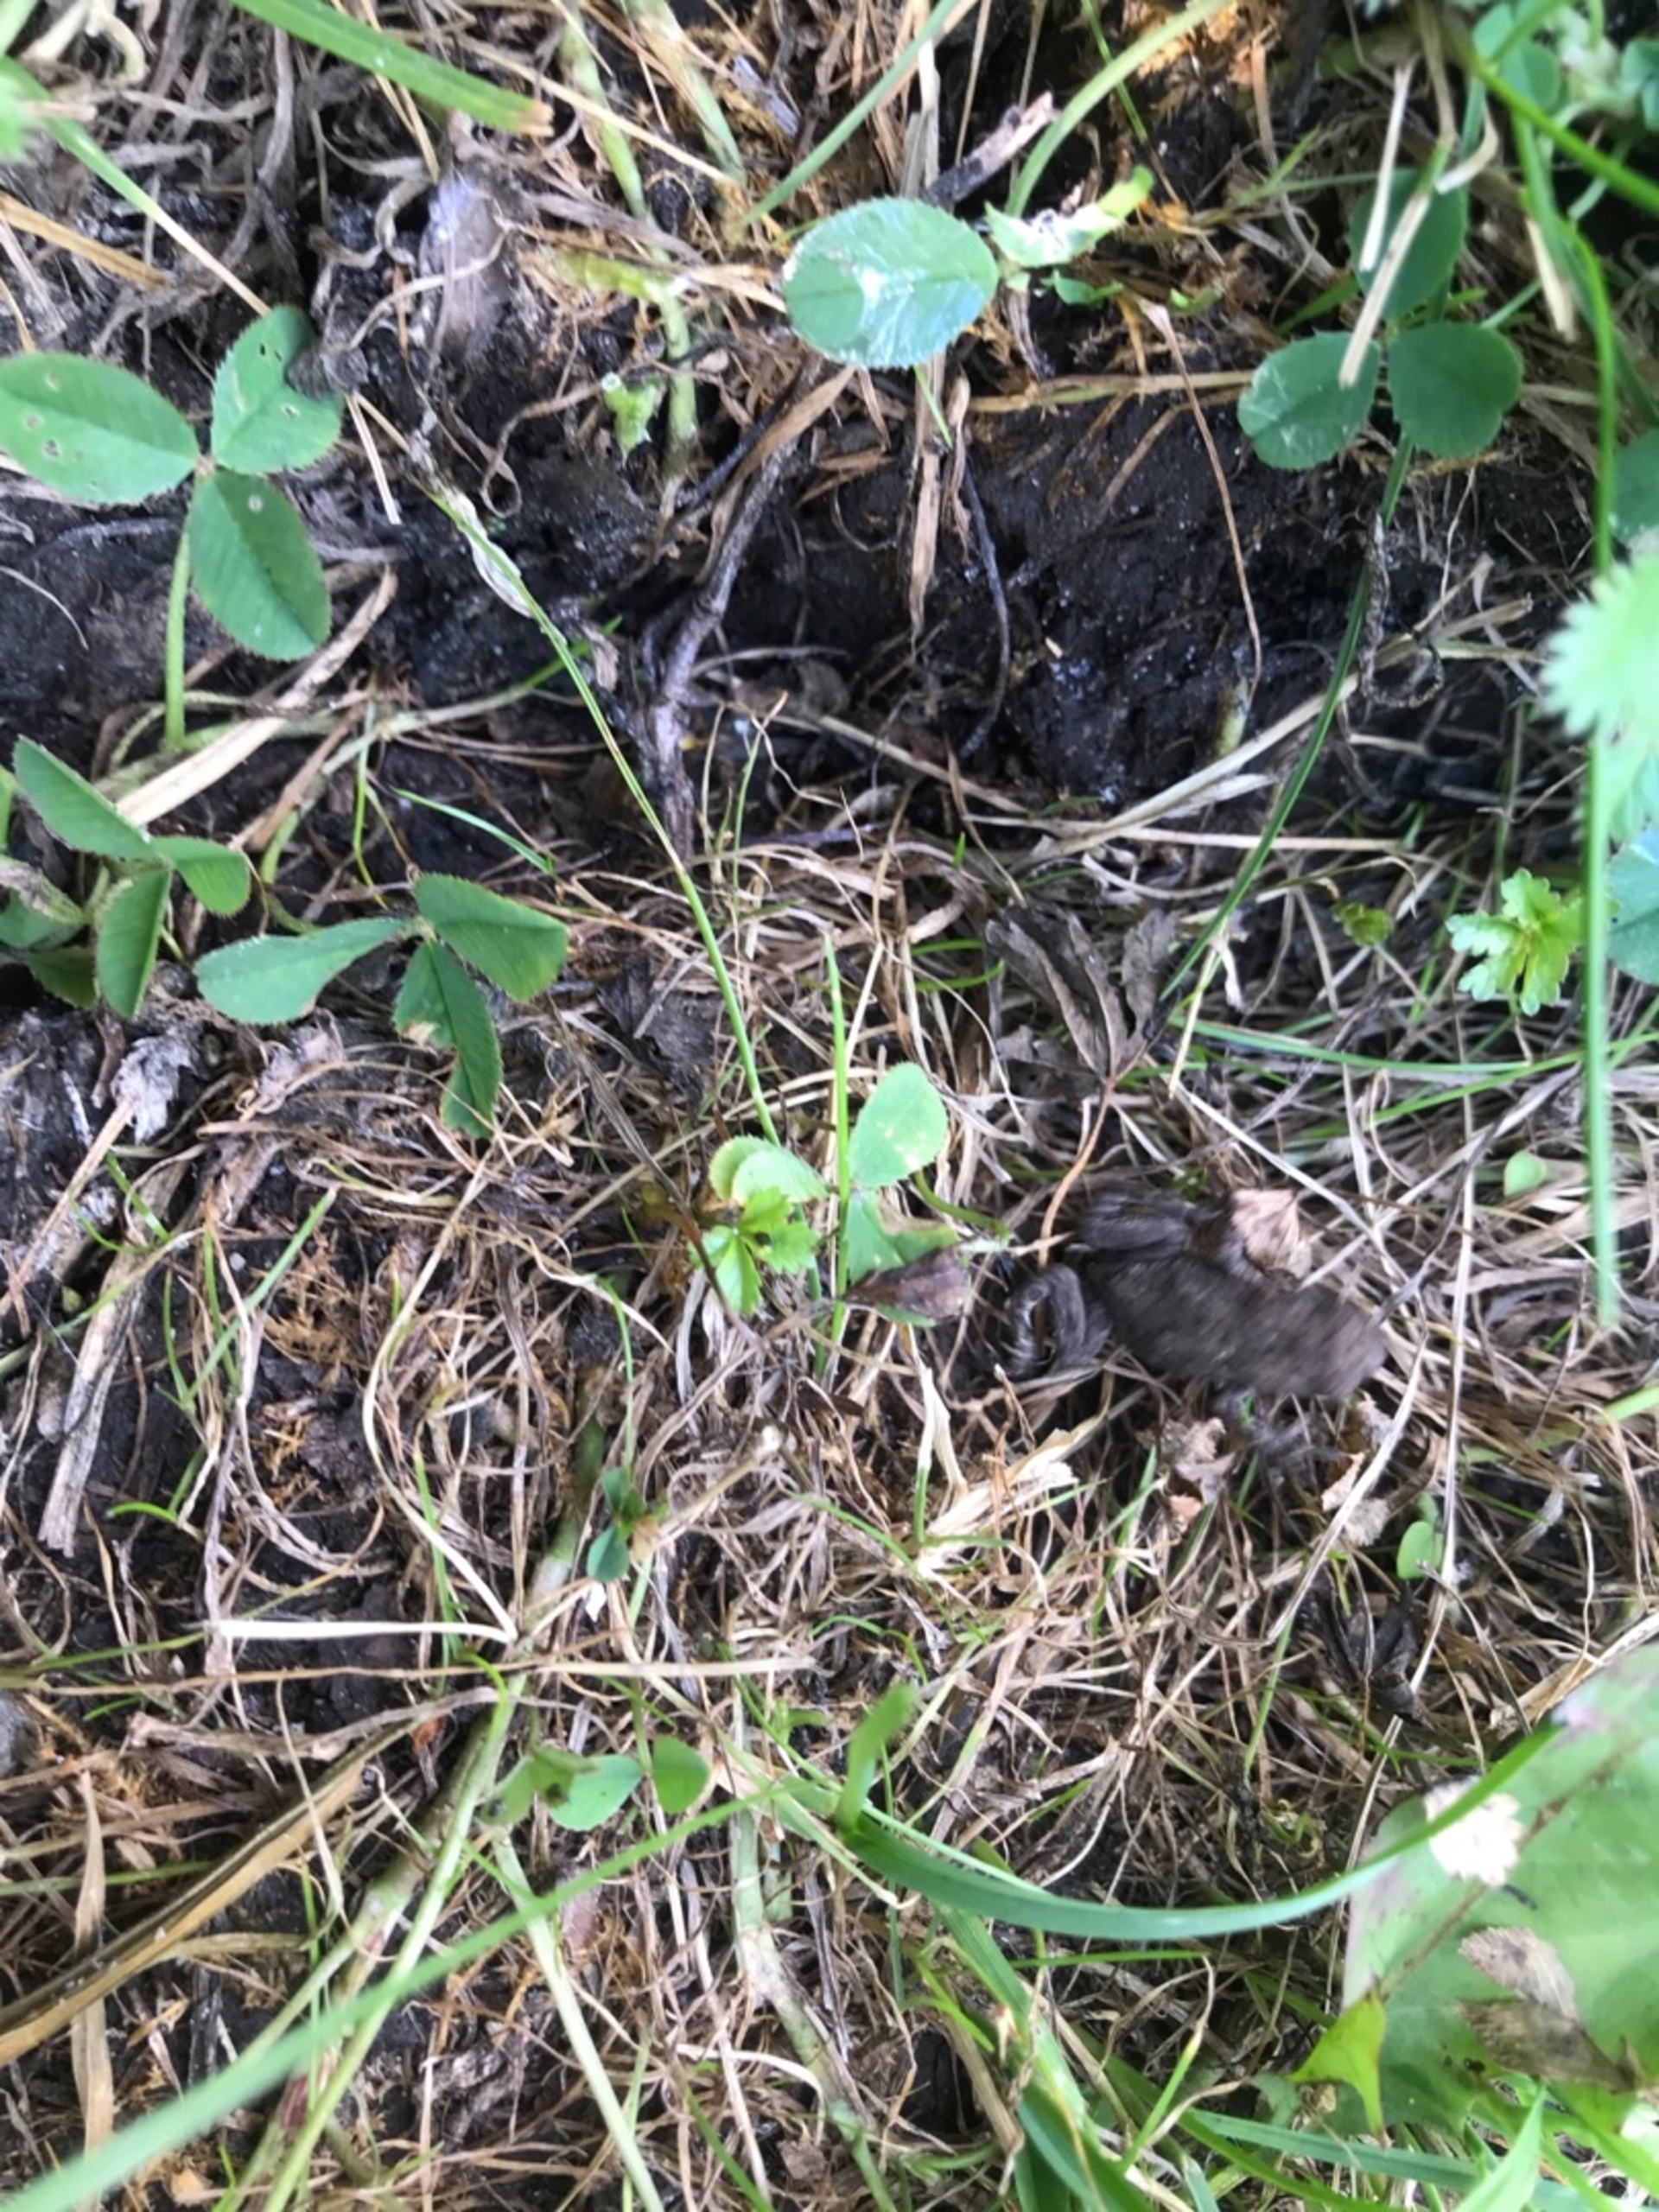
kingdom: Animalia
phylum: Chordata
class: Amphibia
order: Anura
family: Bufonidae
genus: Bufo
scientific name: Bufo bufo
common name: Skrubtudse
